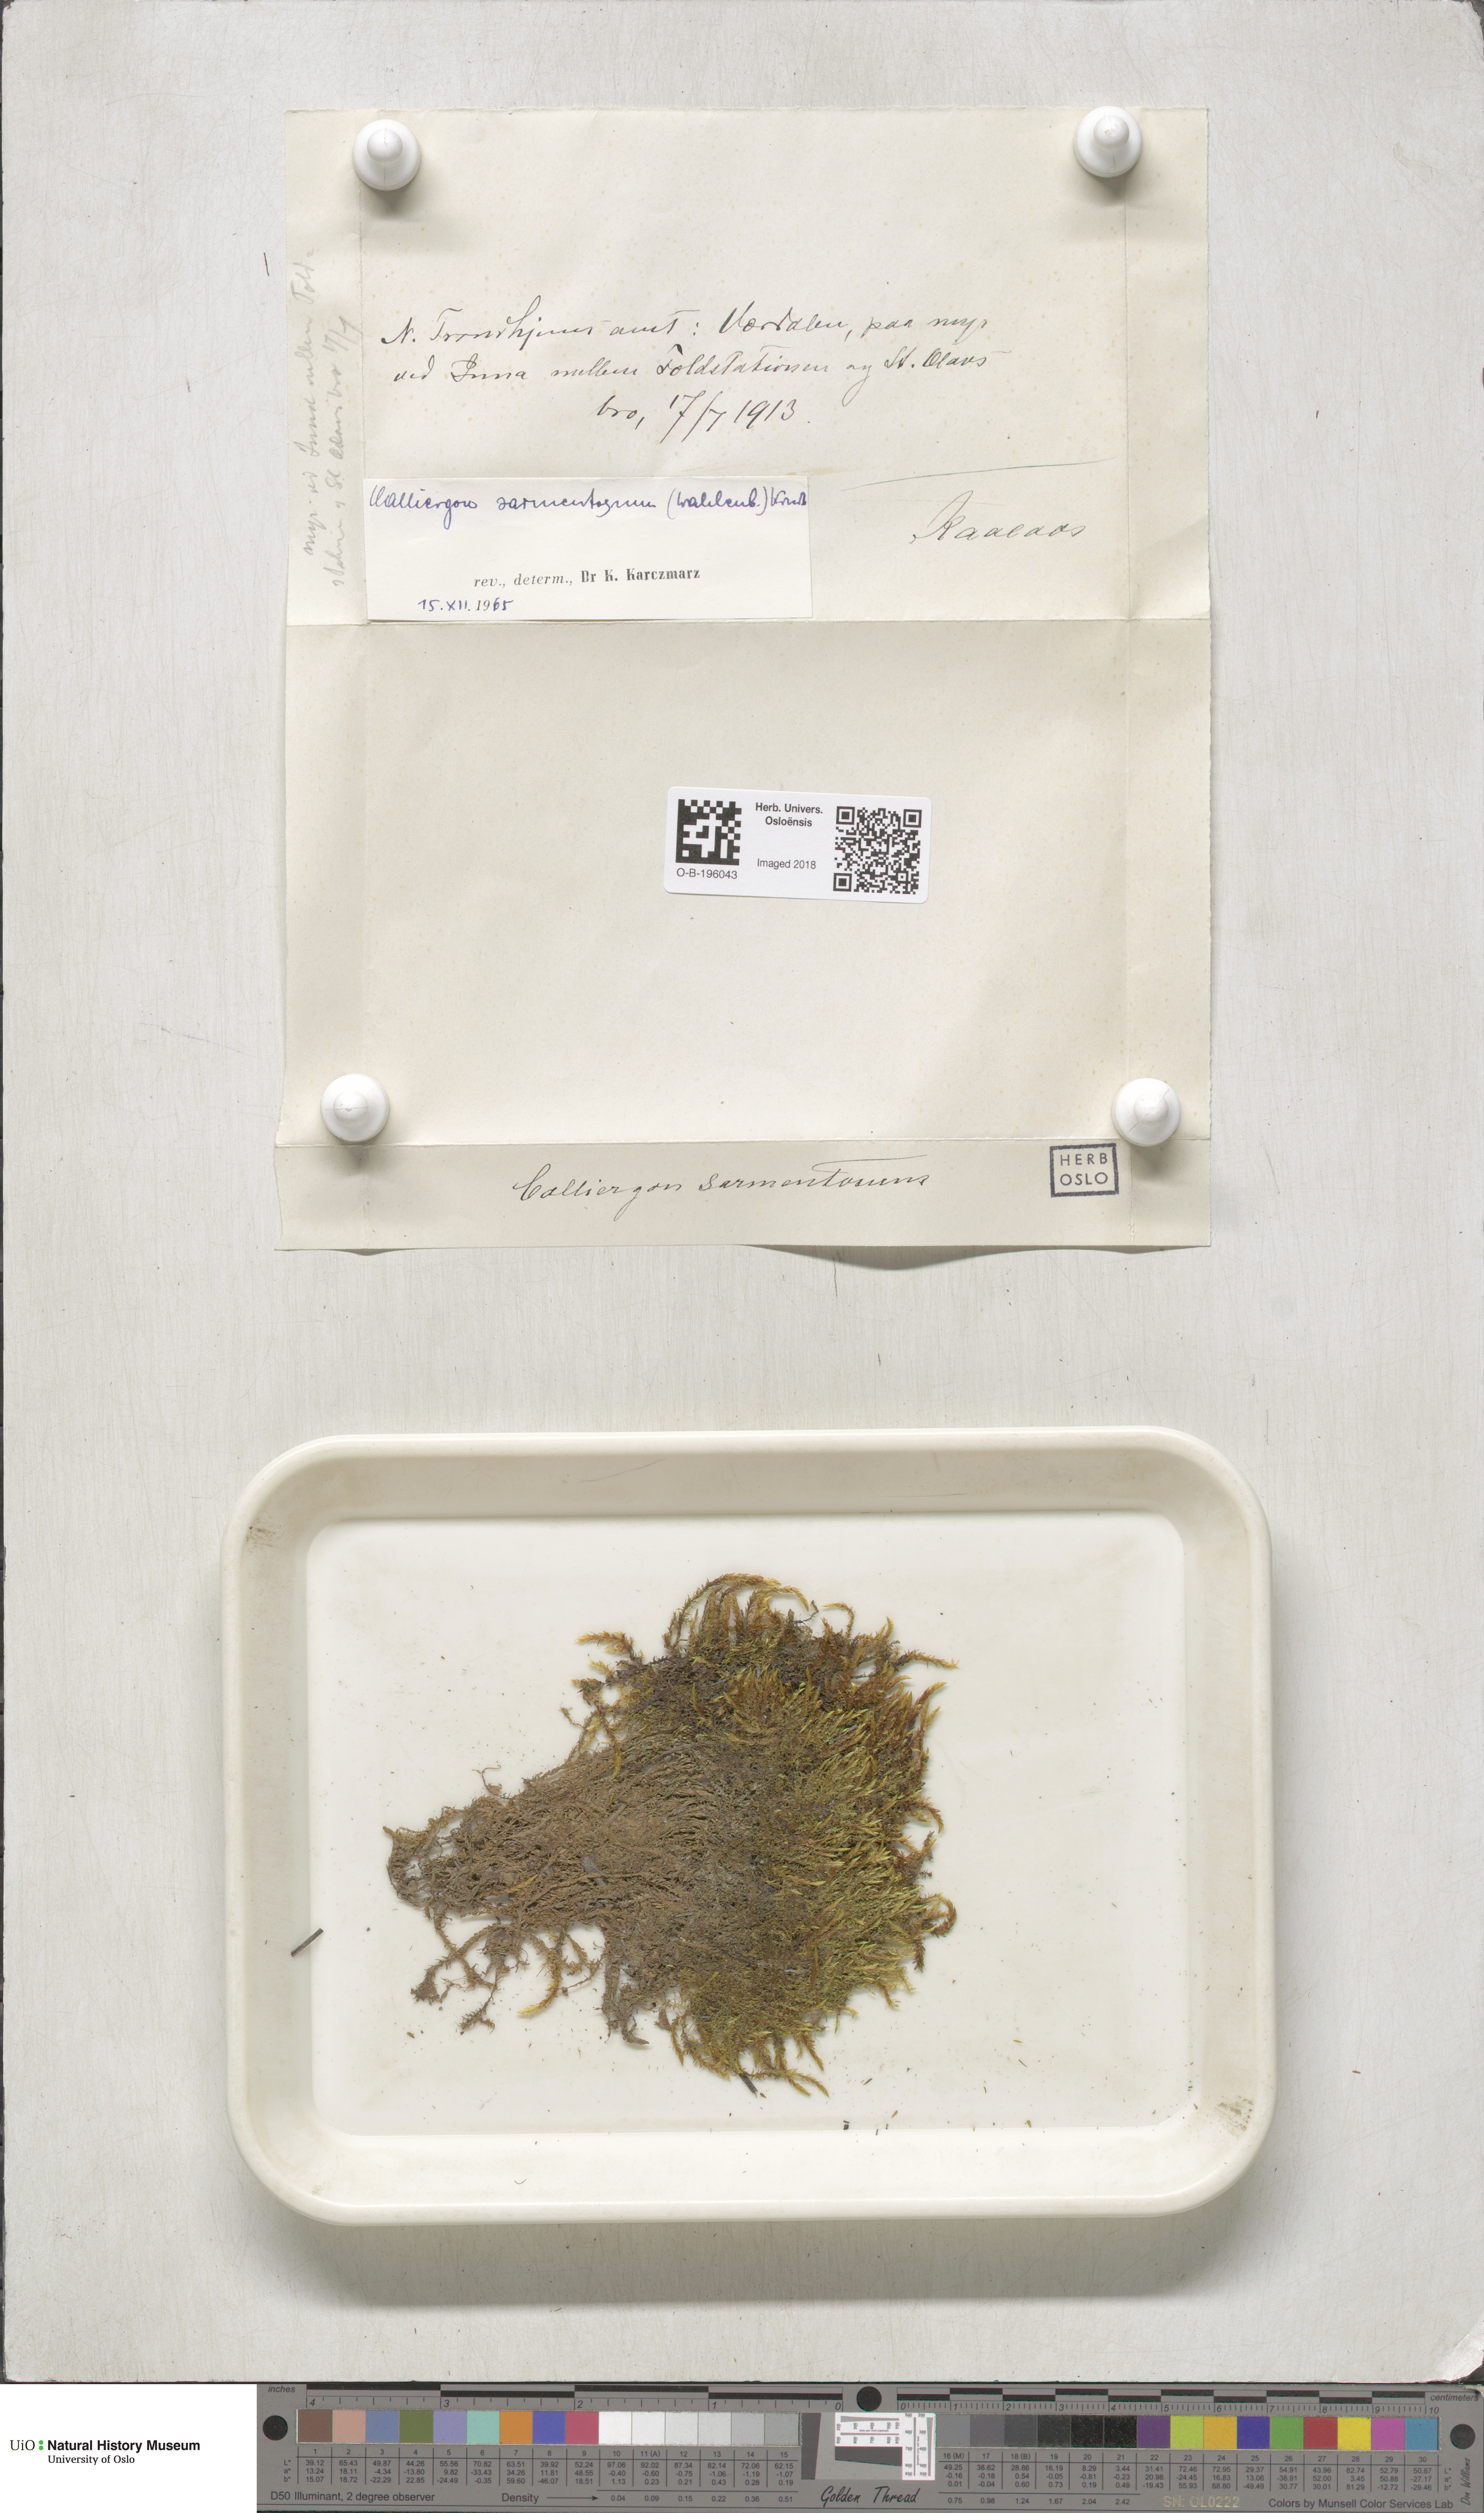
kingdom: Plantae
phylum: Bryophyta
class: Bryopsida
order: Hypnales
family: Calliergonaceae
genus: Sarmentypnum
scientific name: Sarmentypnum sarmentosum
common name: Twiggy spoon moss
